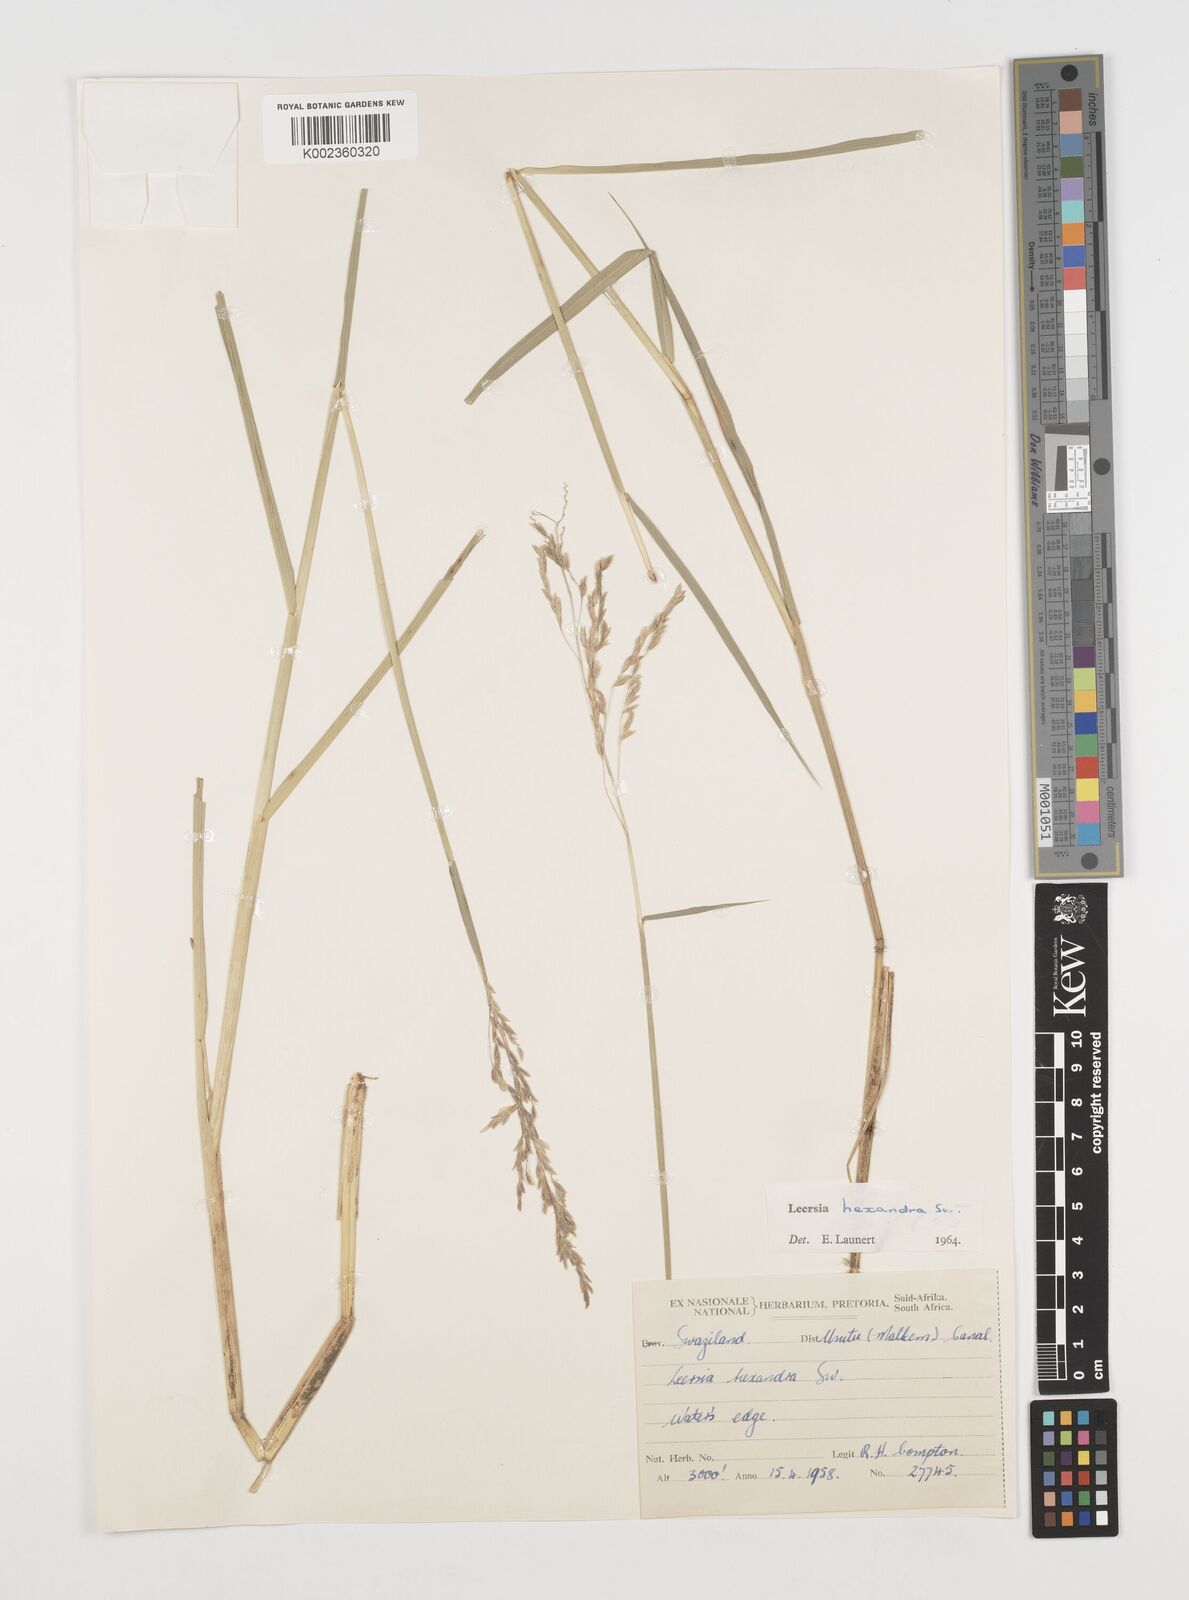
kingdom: Plantae
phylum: Tracheophyta
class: Liliopsida
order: Poales
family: Poaceae
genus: Leersia
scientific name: Leersia hexandra
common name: Southern cut grass
